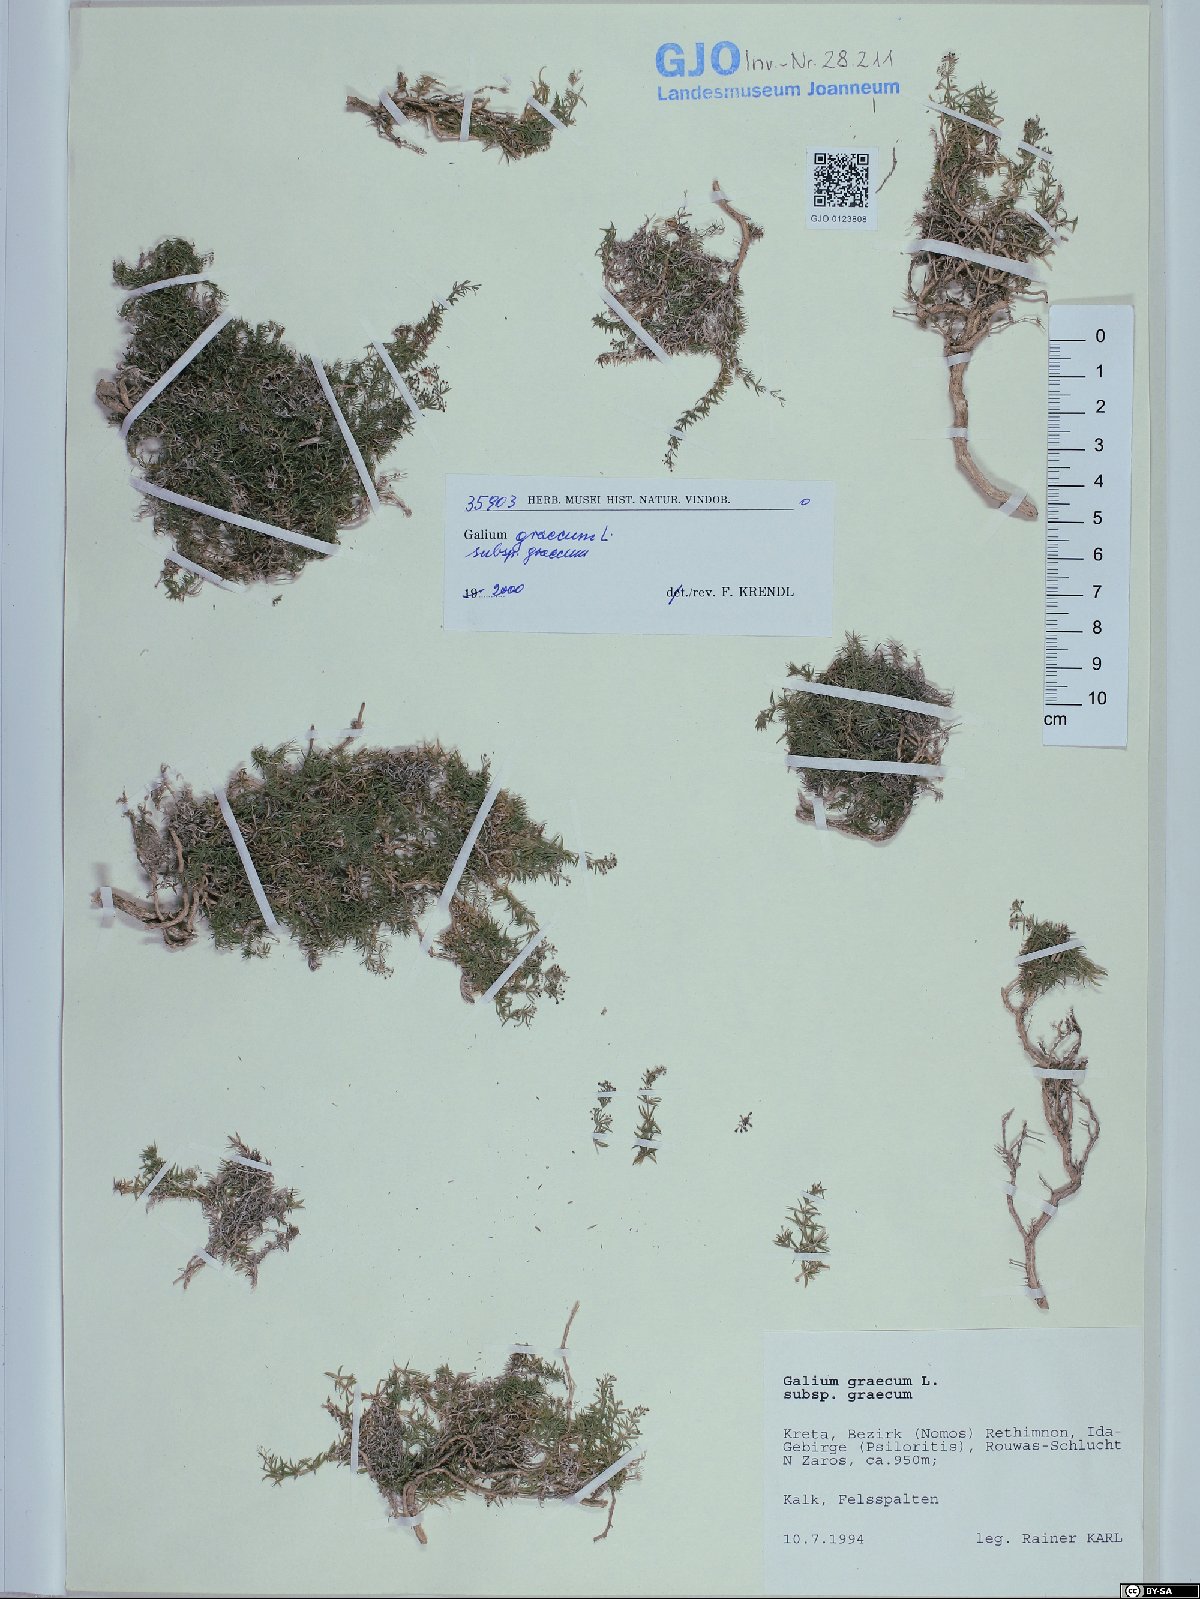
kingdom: Plantae
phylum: Tracheophyta
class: Magnoliopsida
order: Gentianales
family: Rubiaceae
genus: Galium
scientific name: Galium graecum
